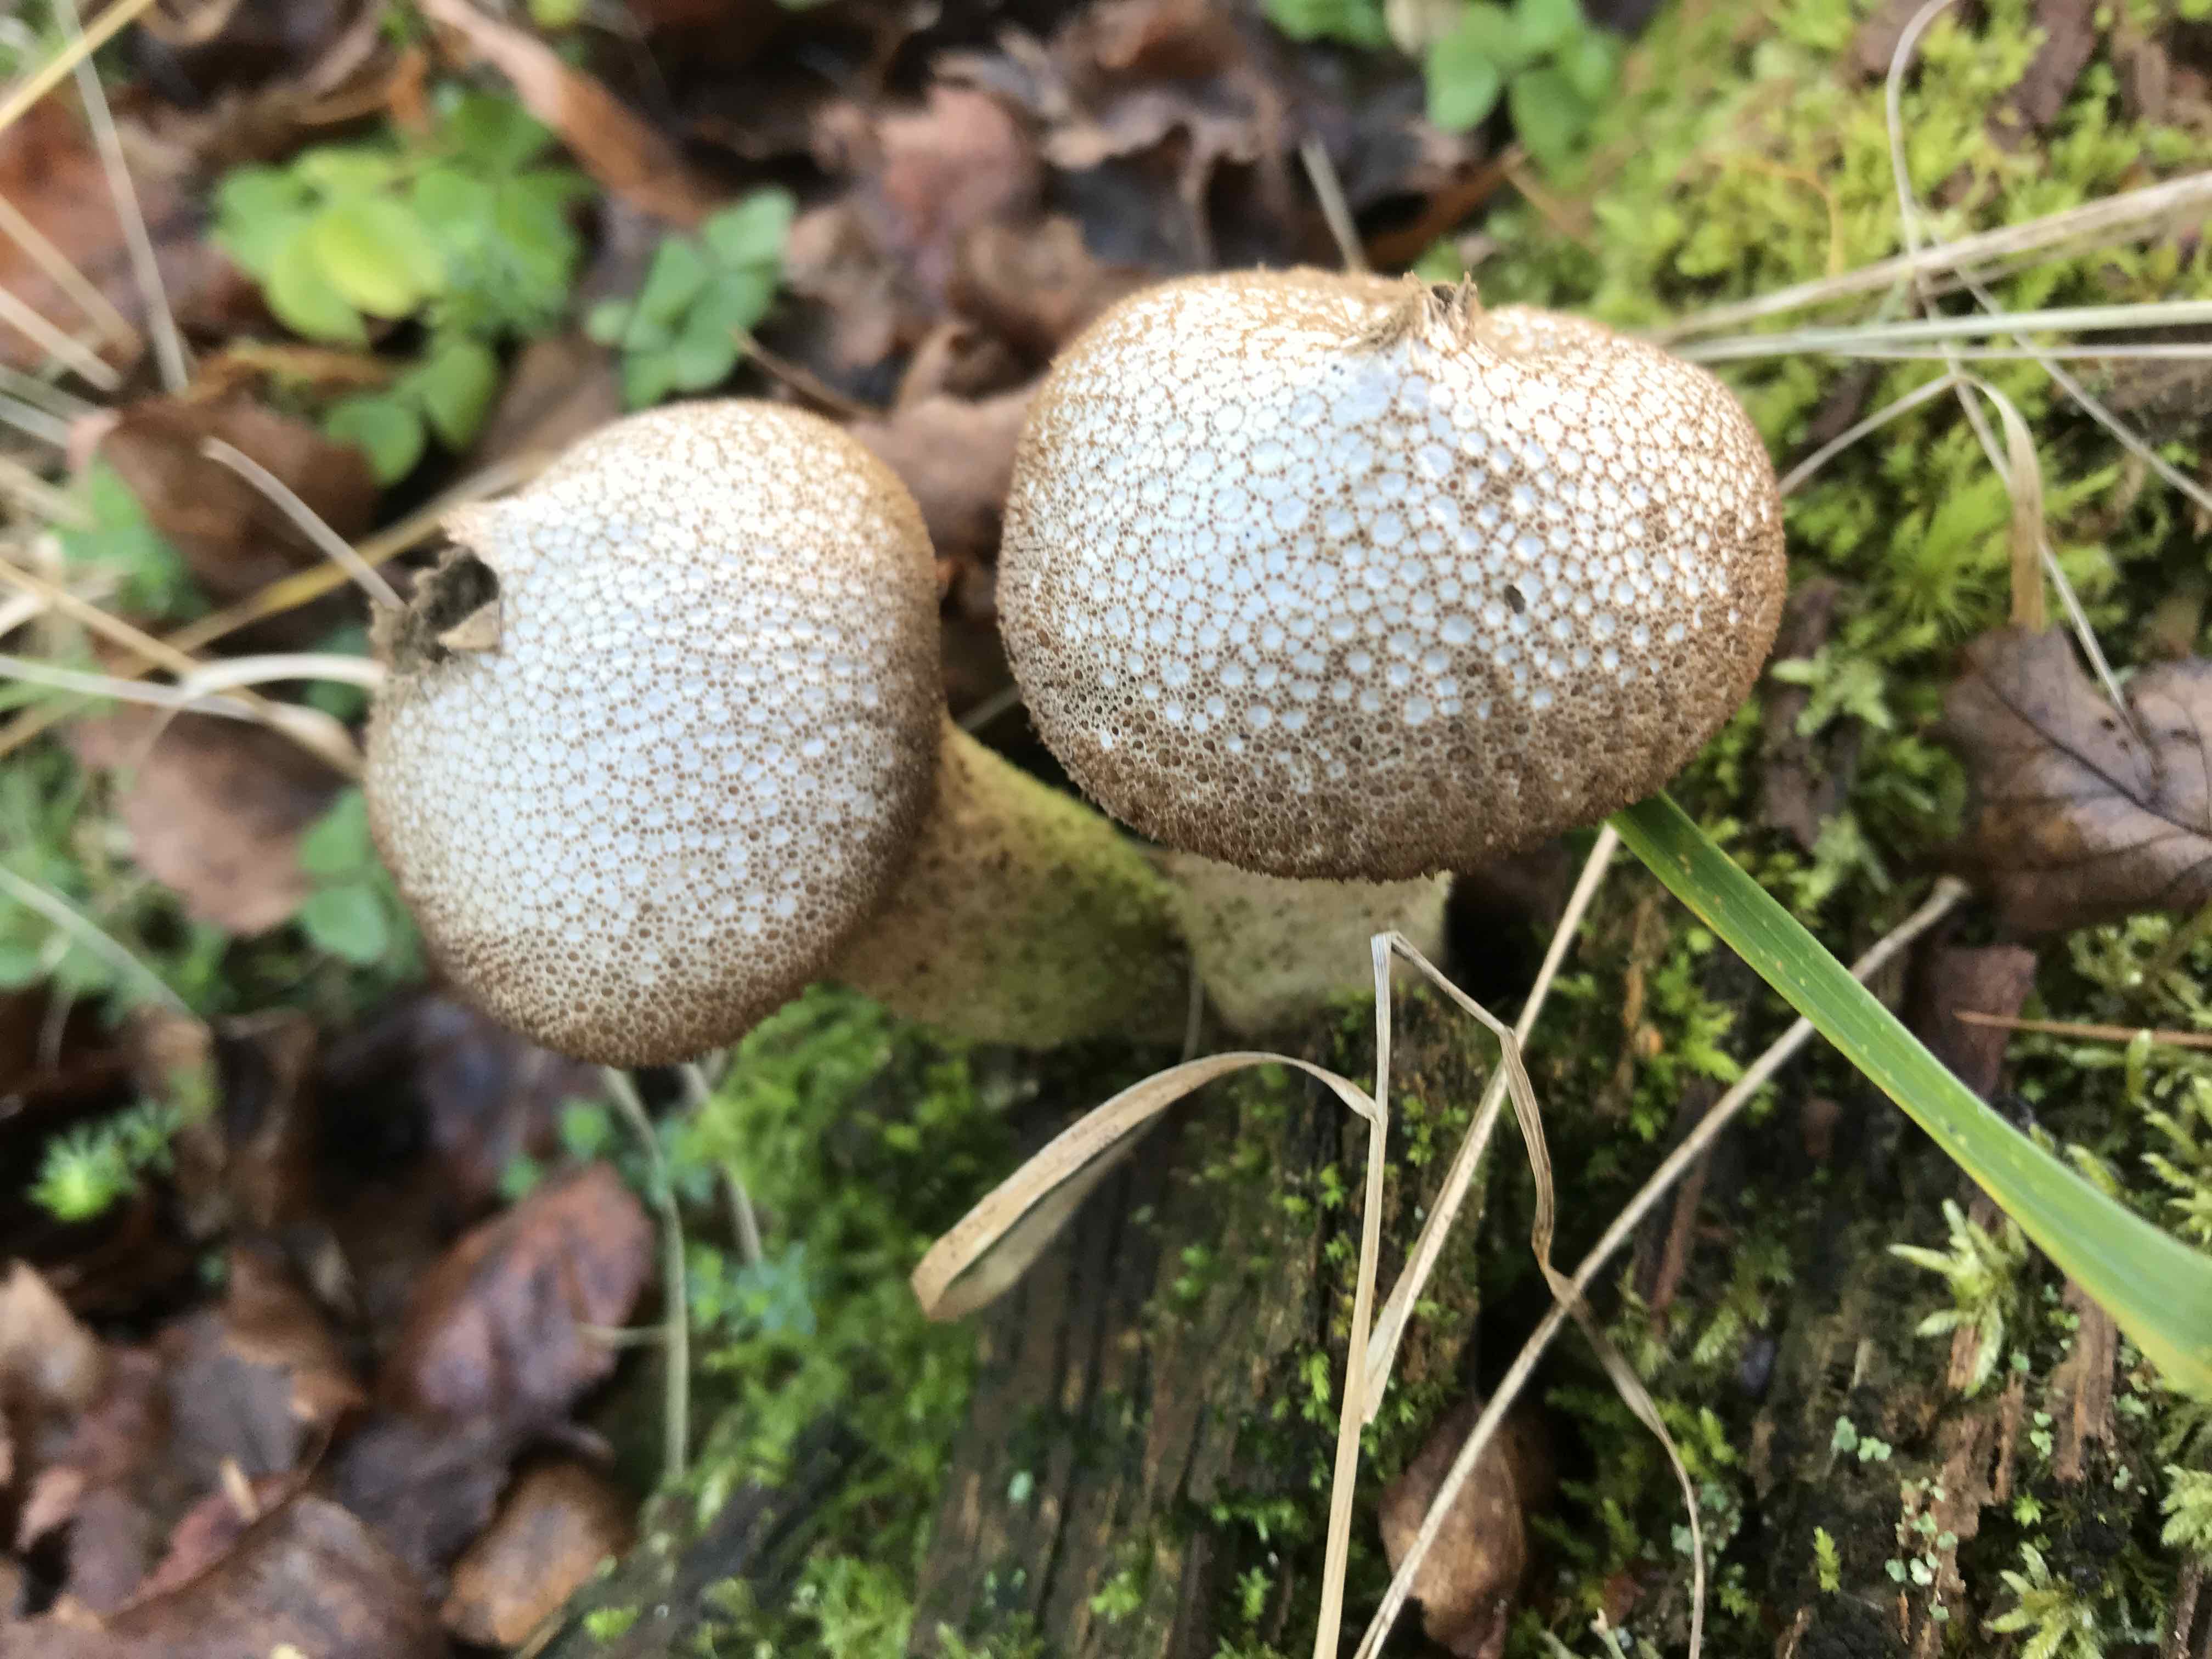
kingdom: Fungi
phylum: Basidiomycota
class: Agaricomycetes
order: Agaricales
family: Lycoperdaceae
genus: Lycoperdon
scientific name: Lycoperdon nigrescens
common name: sortagtig støvbold
